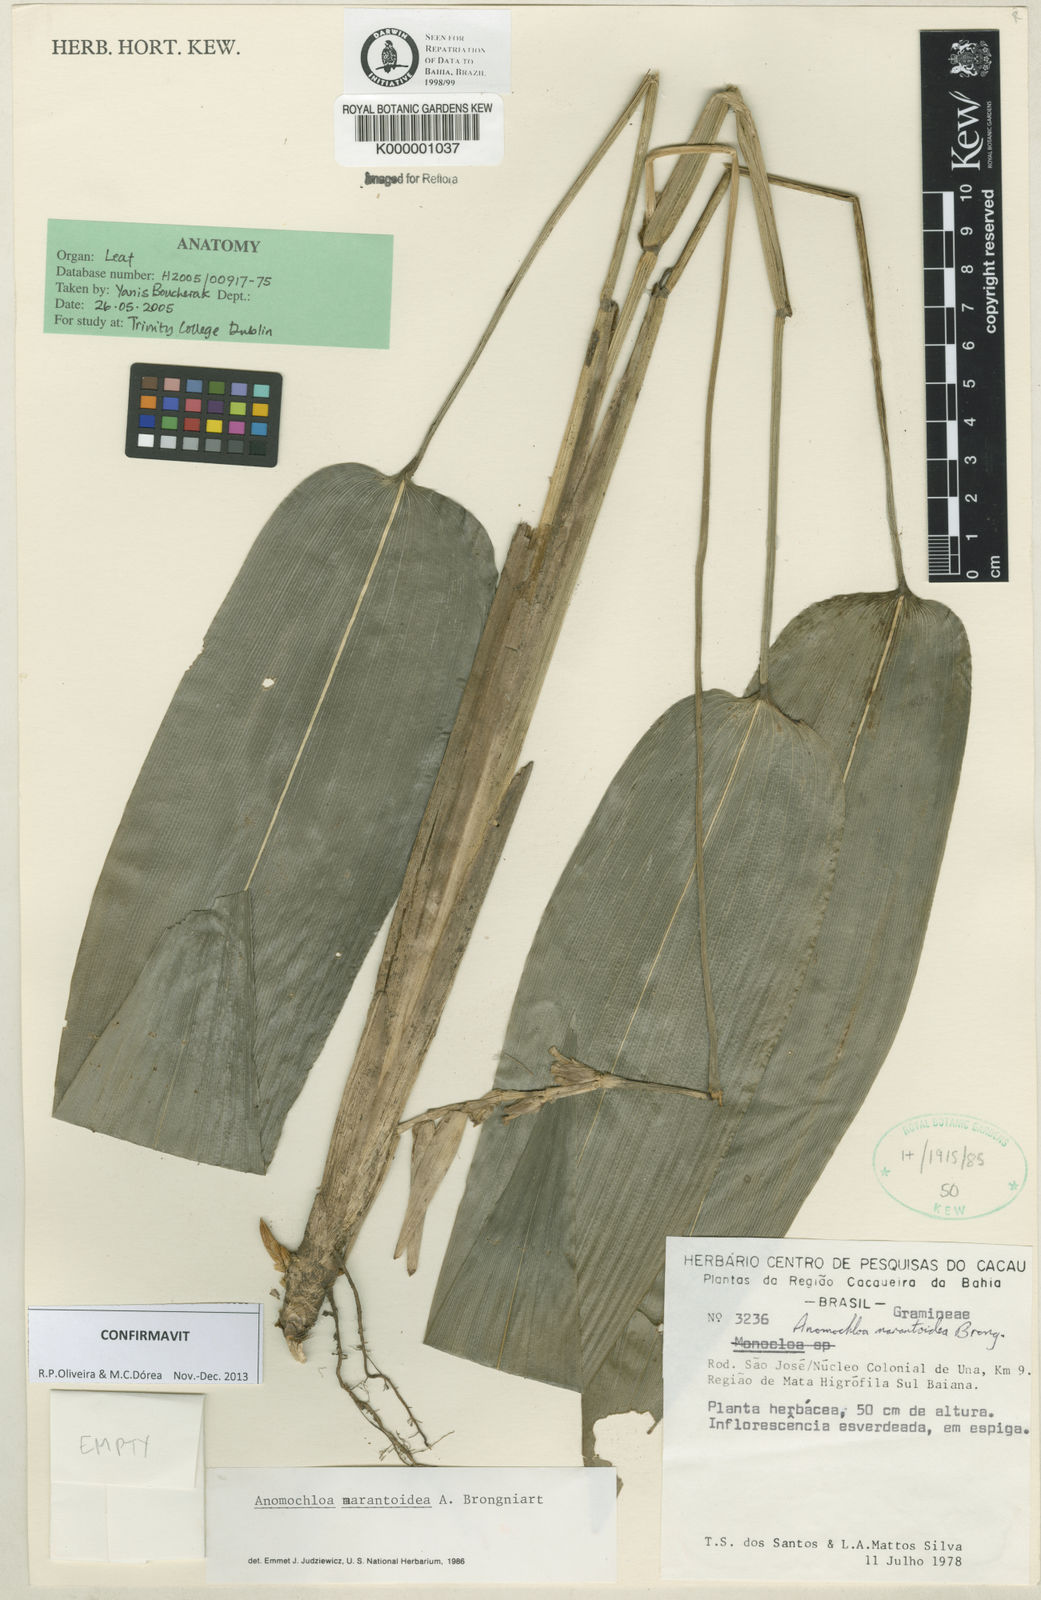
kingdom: Plantae
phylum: Tracheophyta
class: Liliopsida
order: Poales
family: Poaceae
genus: Anomochloa
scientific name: Anomochloa marantoidea
